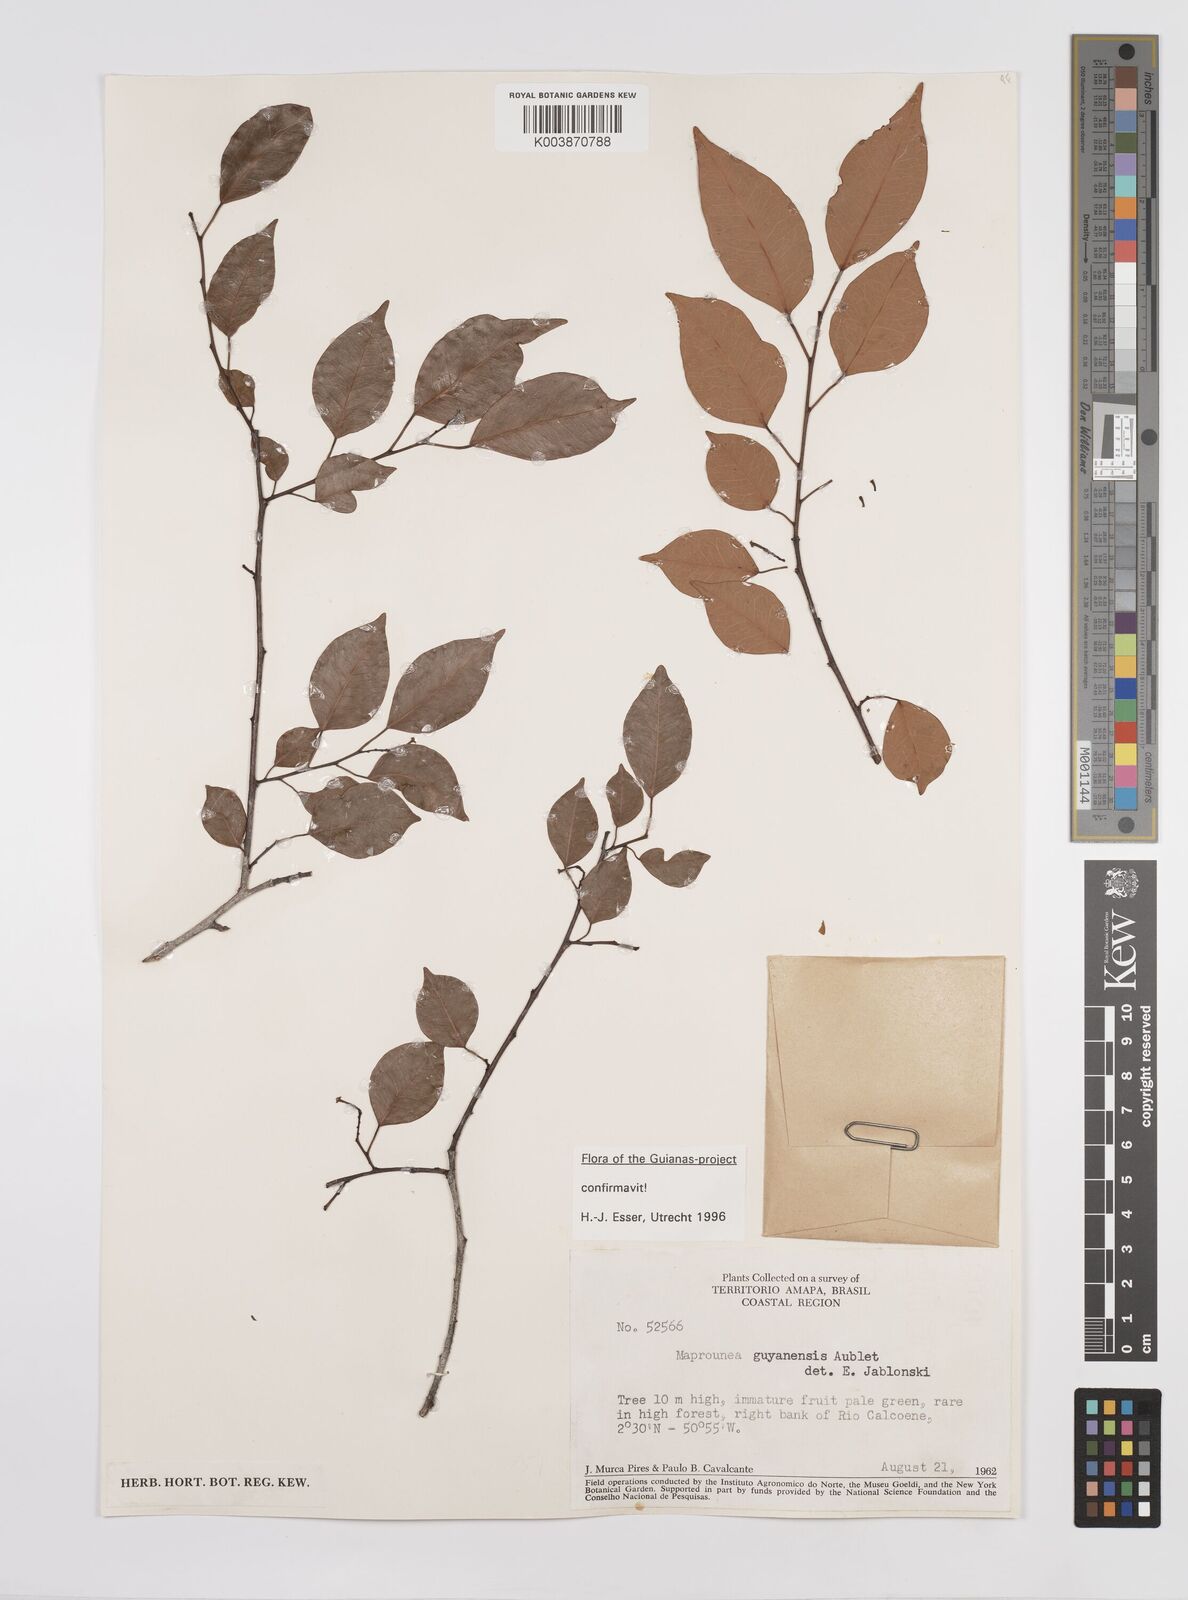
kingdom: Plantae
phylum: Tracheophyta
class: Magnoliopsida
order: Malpighiales
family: Euphorbiaceae
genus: Maprounea
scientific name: Maprounea guianensis
